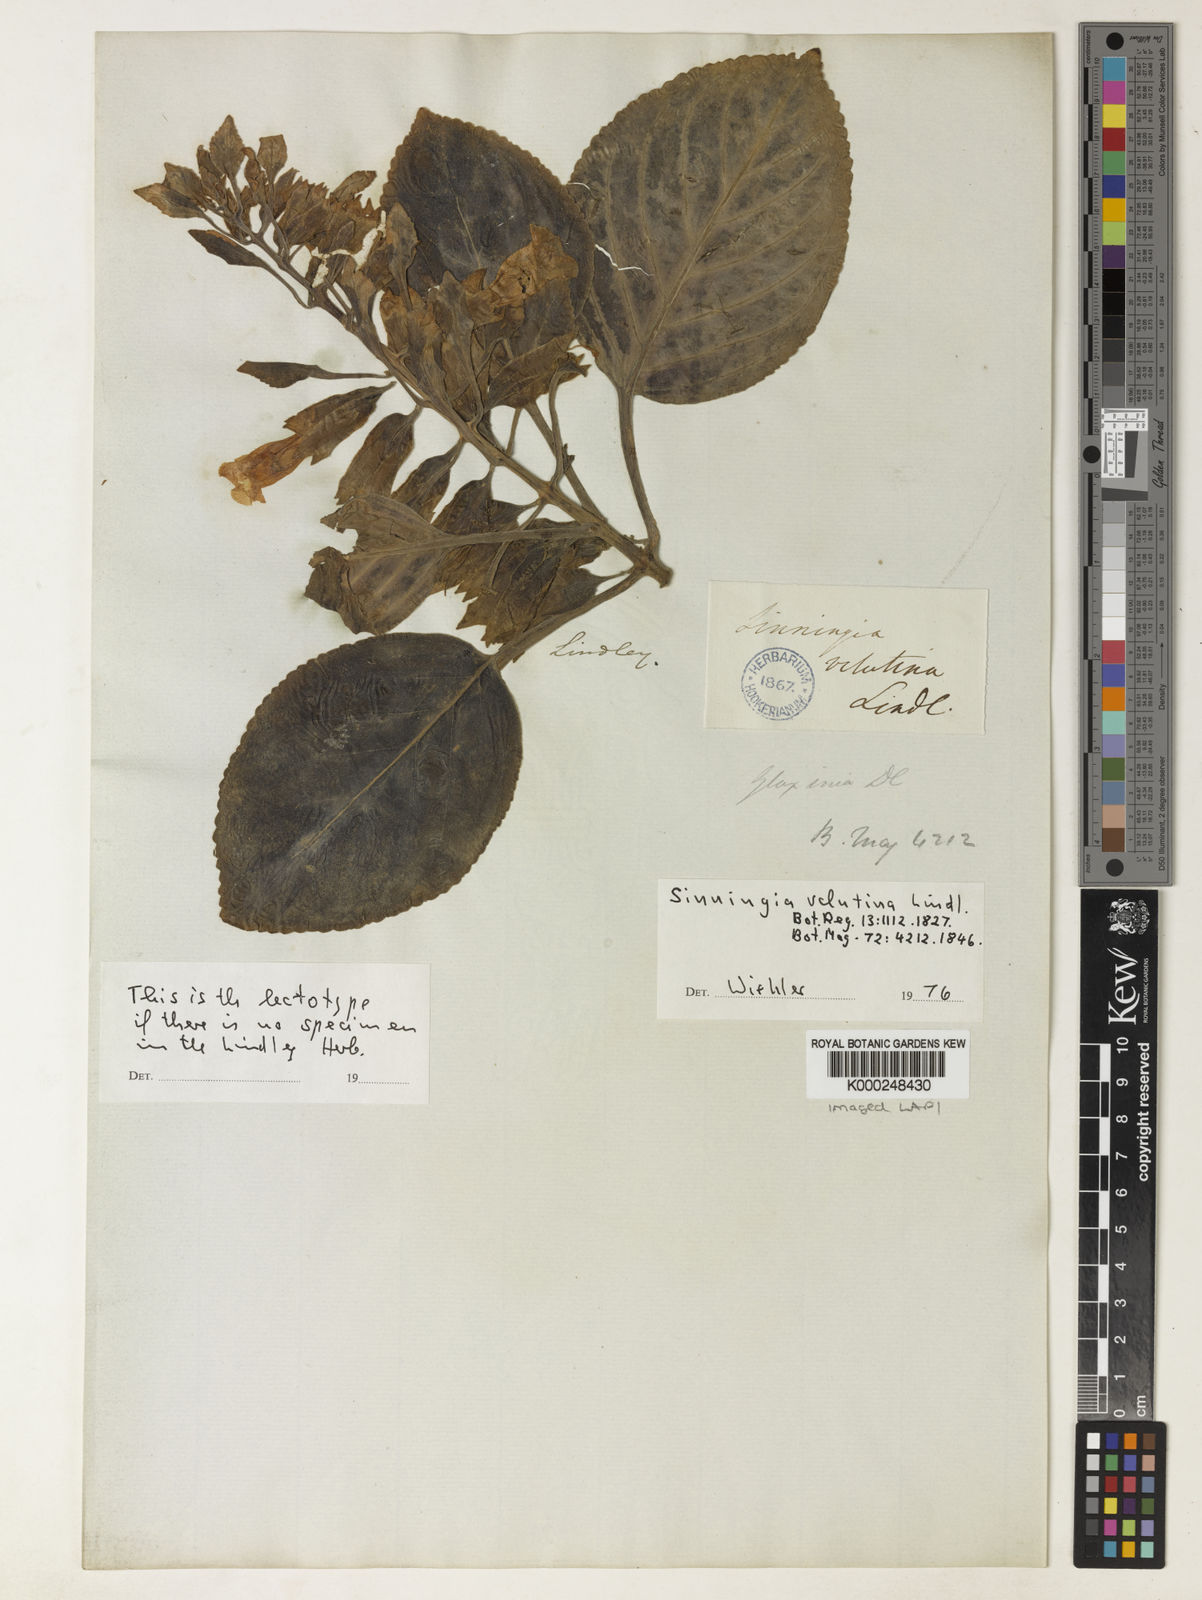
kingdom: Plantae
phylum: Tracheophyta
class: Magnoliopsida
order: Lamiales
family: Gesneriaceae
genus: Sinningia
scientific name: Sinningia velutina
